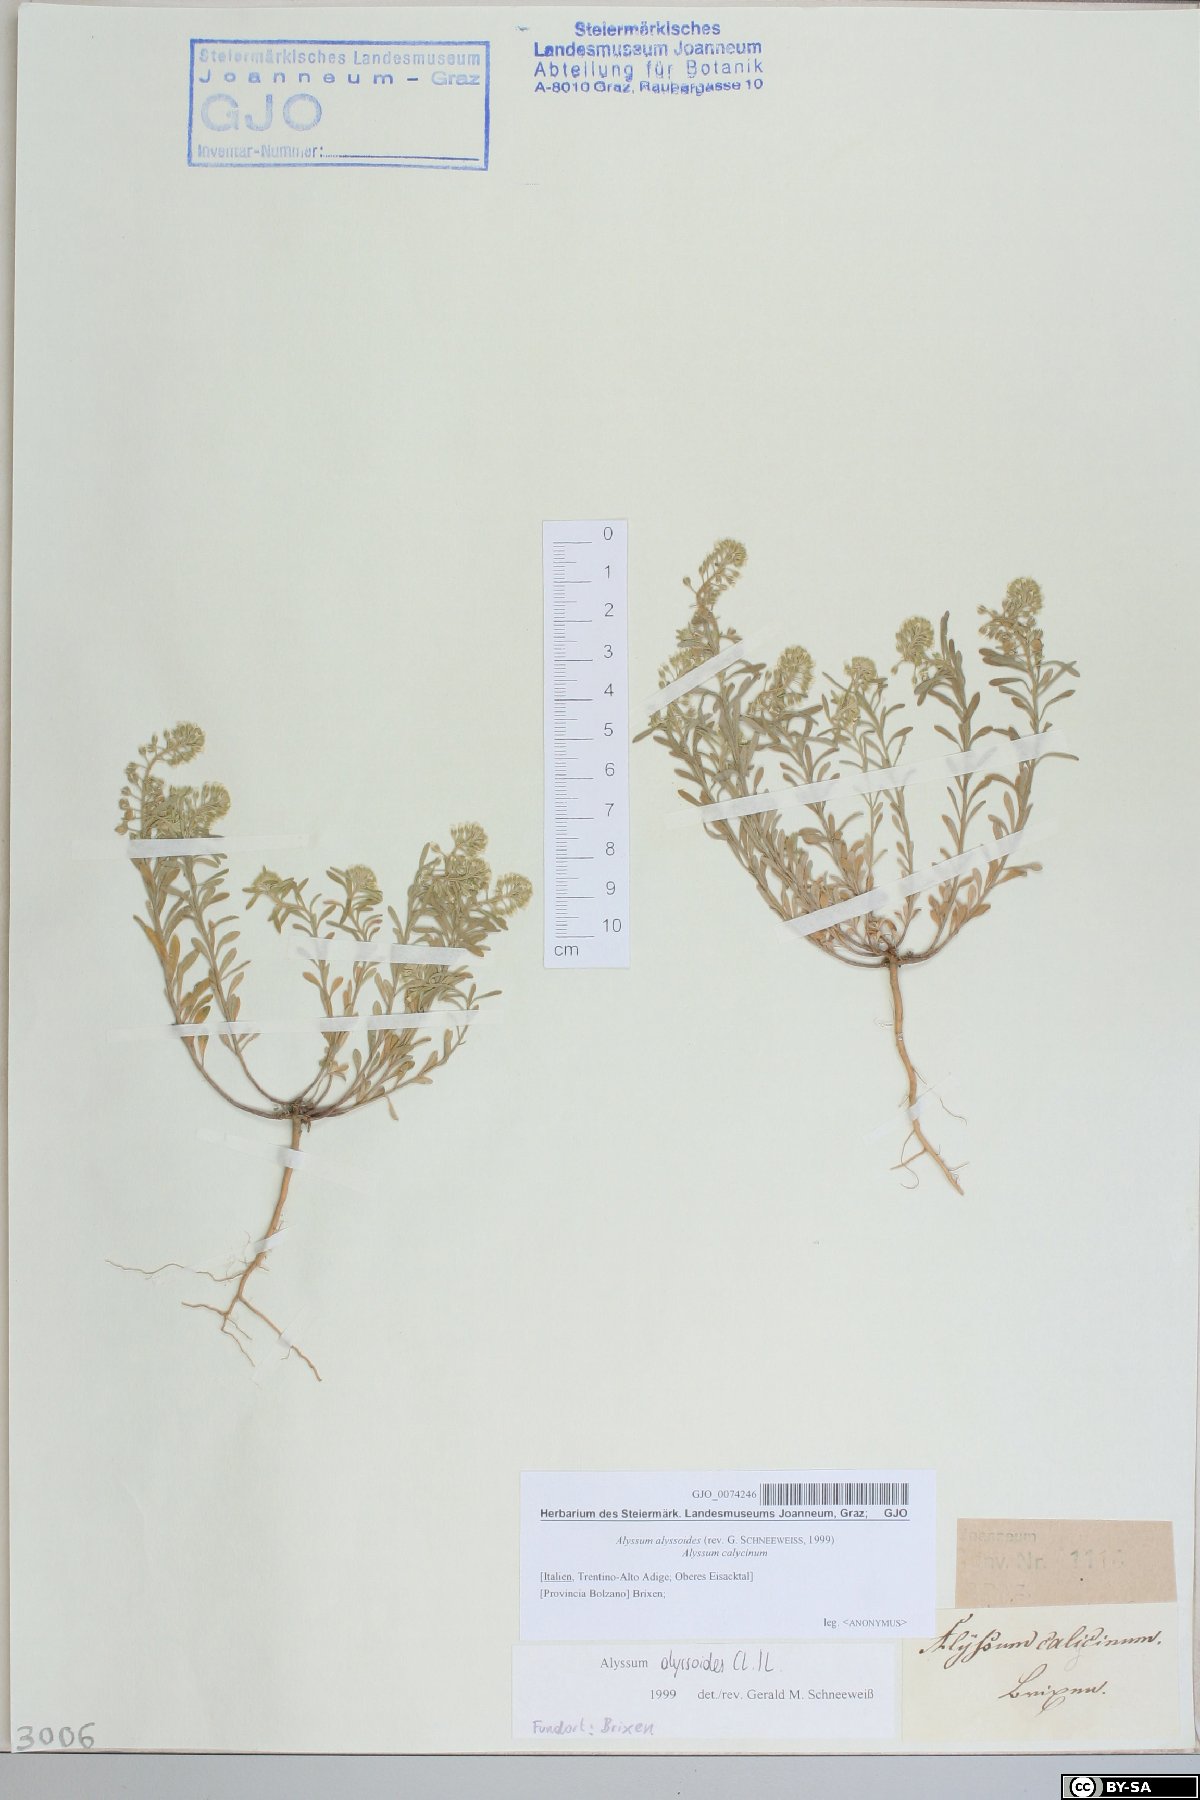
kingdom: Plantae
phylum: Tracheophyta
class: Magnoliopsida
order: Brassicales
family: Brassicaceae
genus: Alyssum
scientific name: Alyssum alyssoides
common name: Small alison
